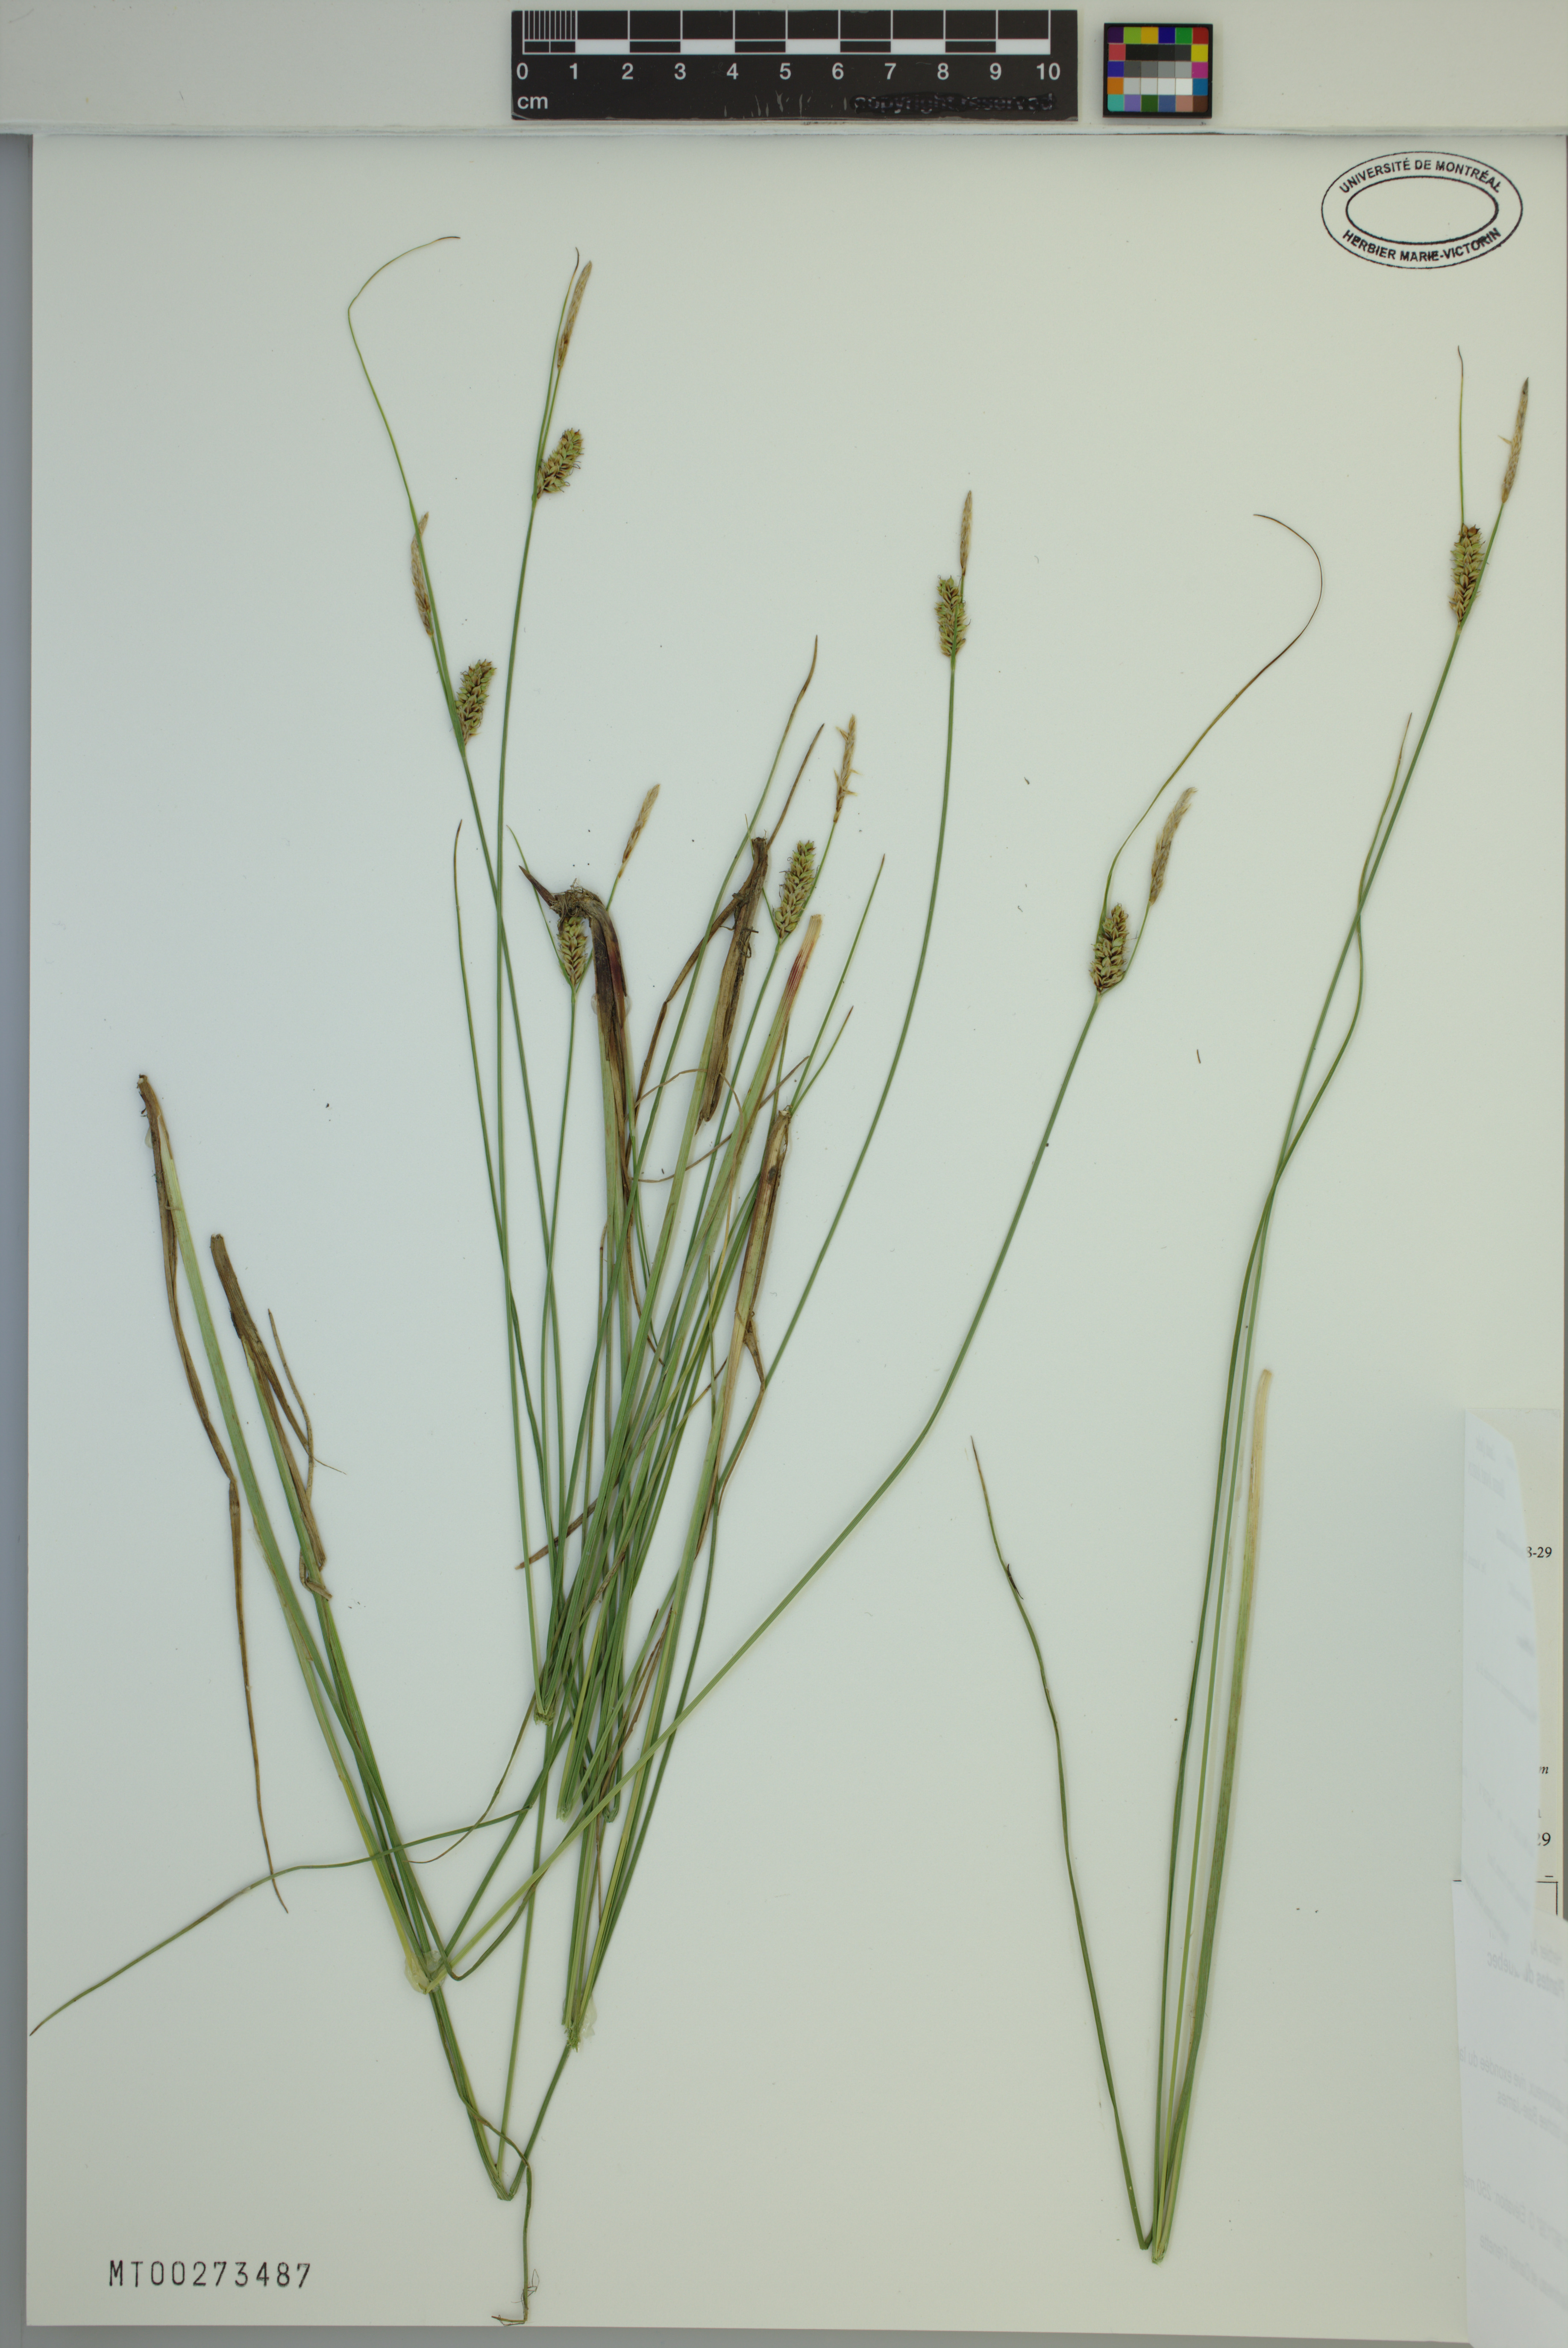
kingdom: Plantae
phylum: Tracheophyta
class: Liliopsida
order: Poales
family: Cyperaceae
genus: Carex
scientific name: Carex saxatilis
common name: Russet sedge
